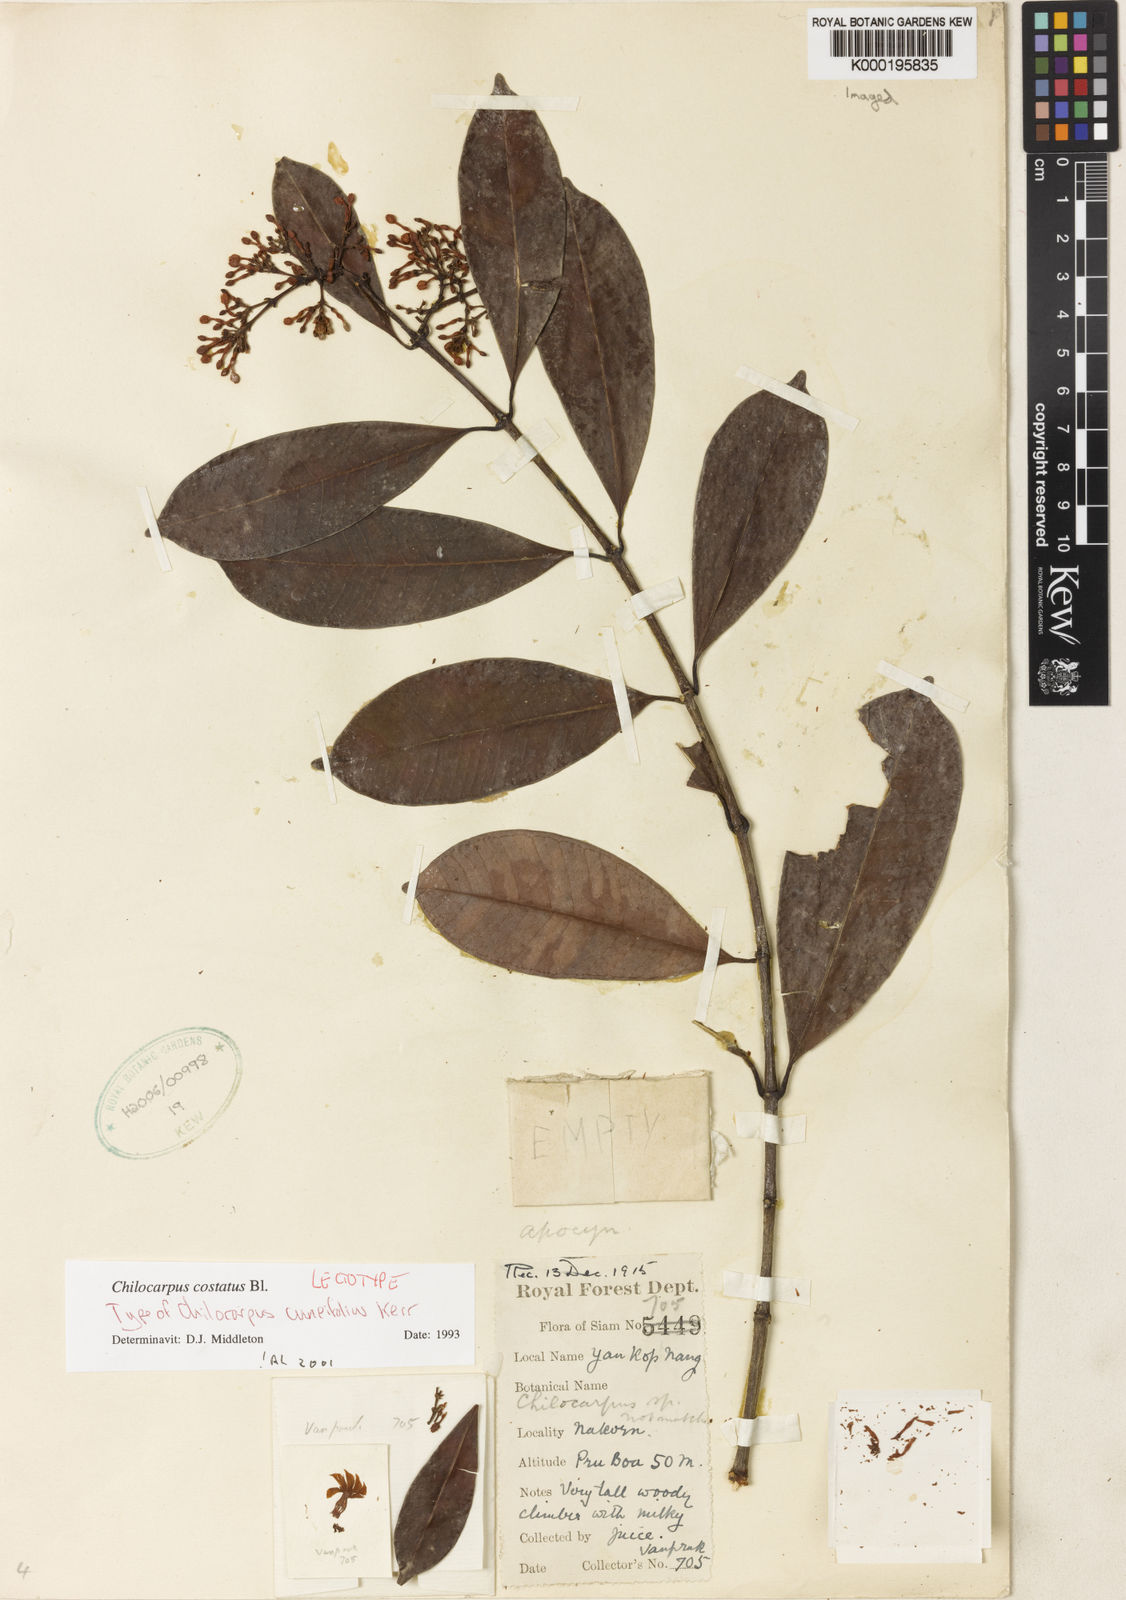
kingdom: Plantae
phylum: Tracheophyta
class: Magnoliopsida
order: Gentianales
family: Apocynaceae
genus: Chilocarpus
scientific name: Chilocarpus
